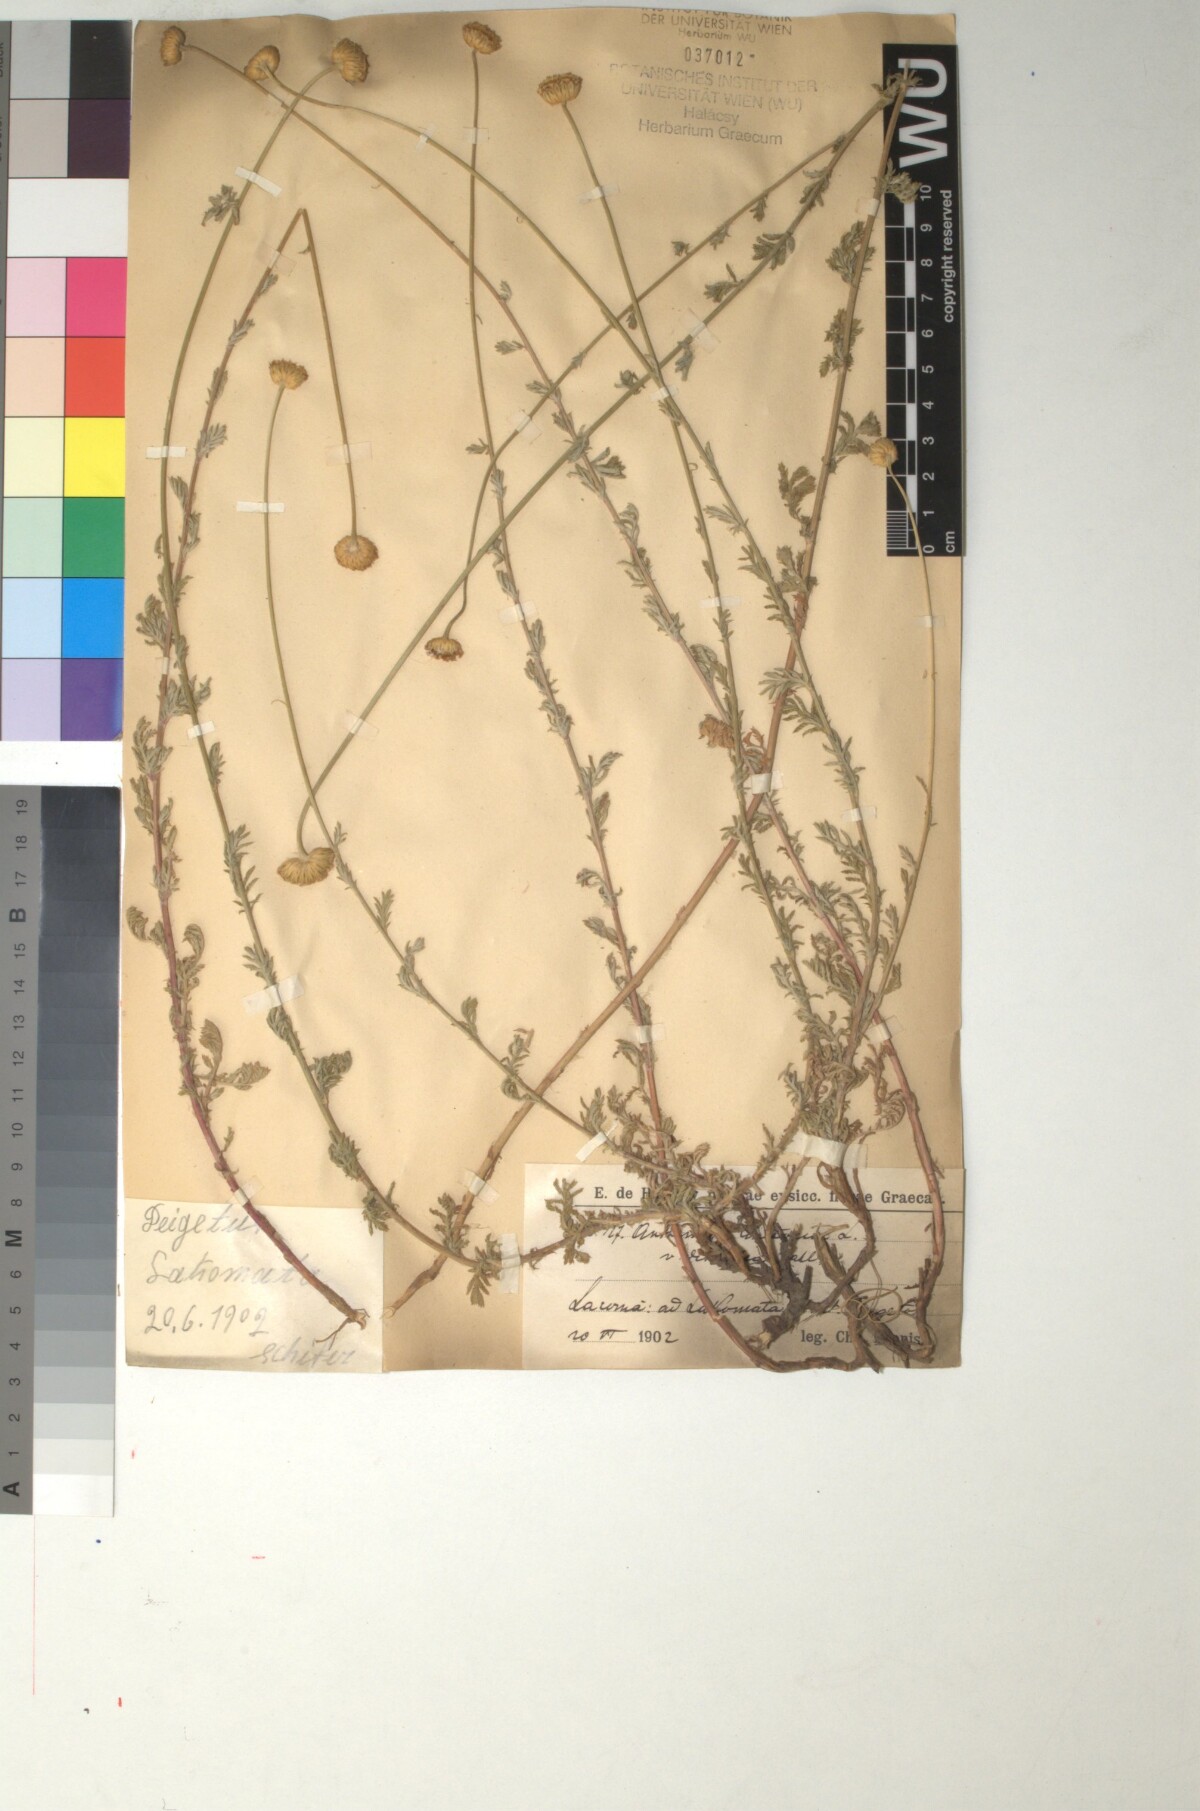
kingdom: Plantae
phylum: Tracheophyta
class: Magnoliopsida
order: Asterales
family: Asteraceae
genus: Cota
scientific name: Cota tinctoria
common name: Golden chamomile
